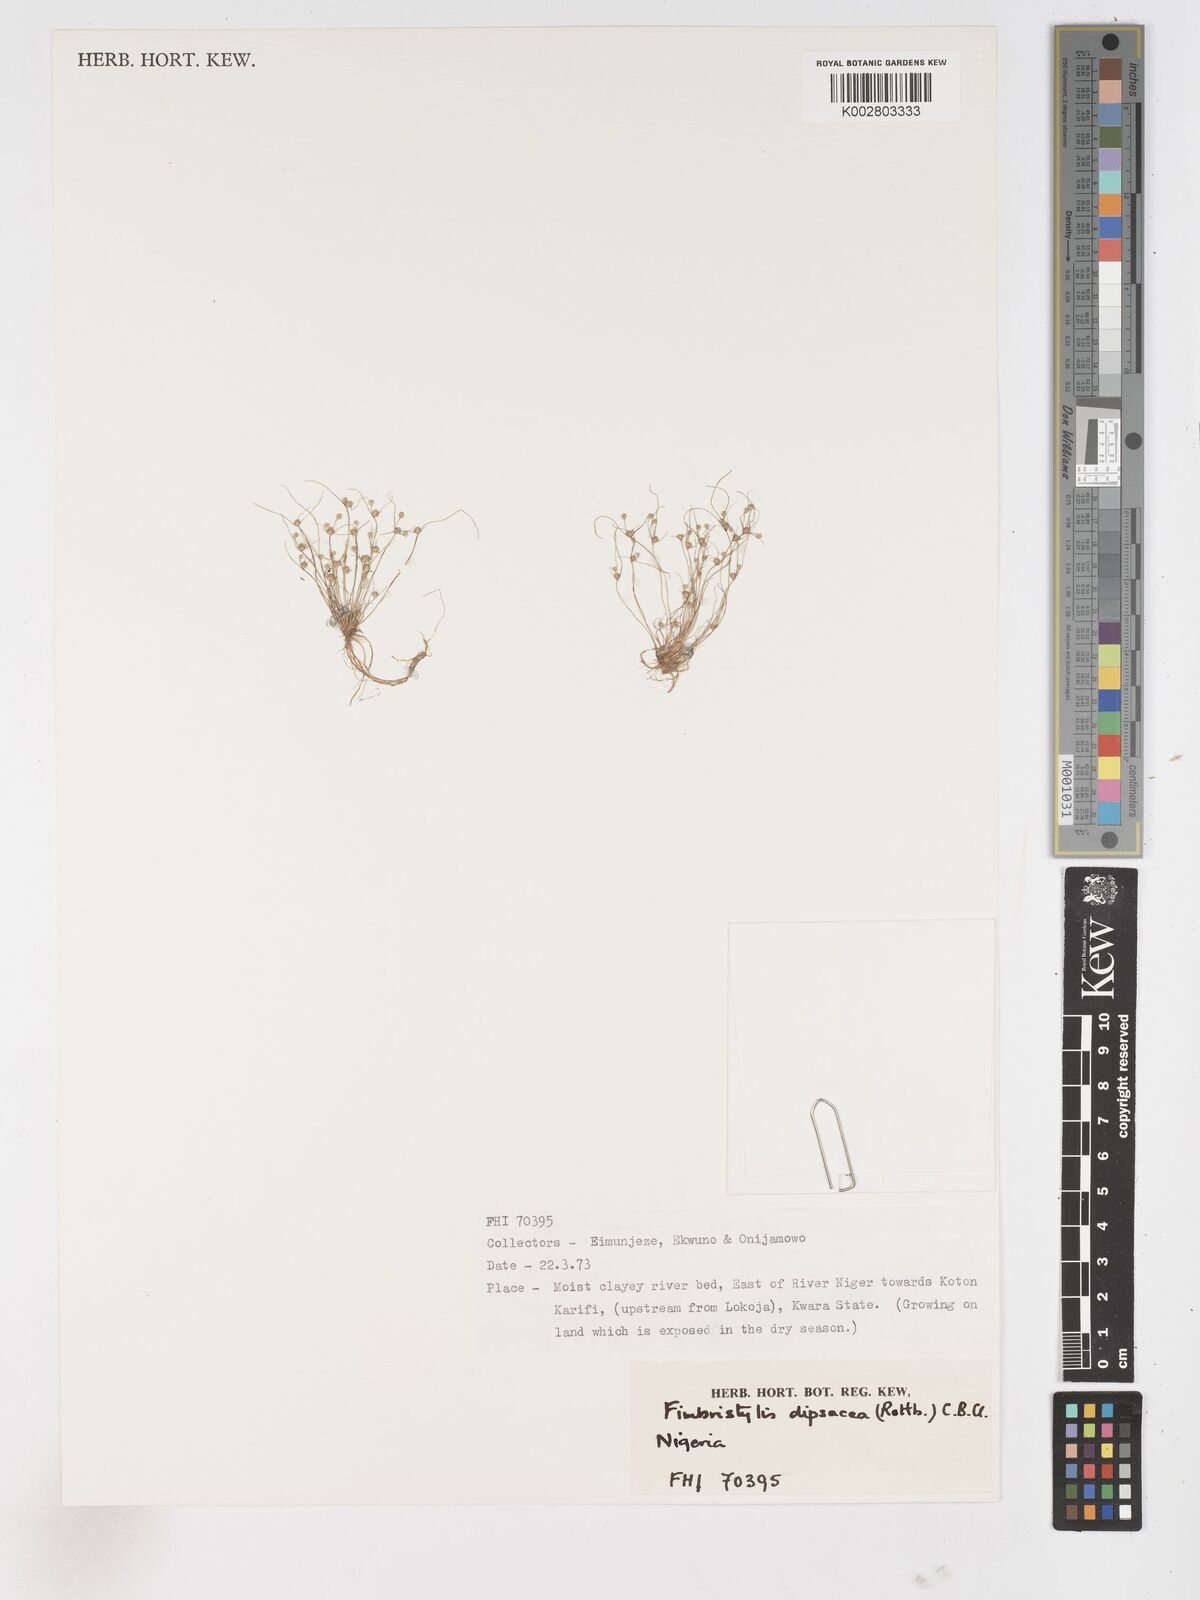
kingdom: Plantae
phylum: Tracheophyta
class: Liliopsida
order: Poales
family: Cyperaceae
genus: Fimbristylis
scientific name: Fimbristylis dipsacea
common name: Harper's fimbristylis
